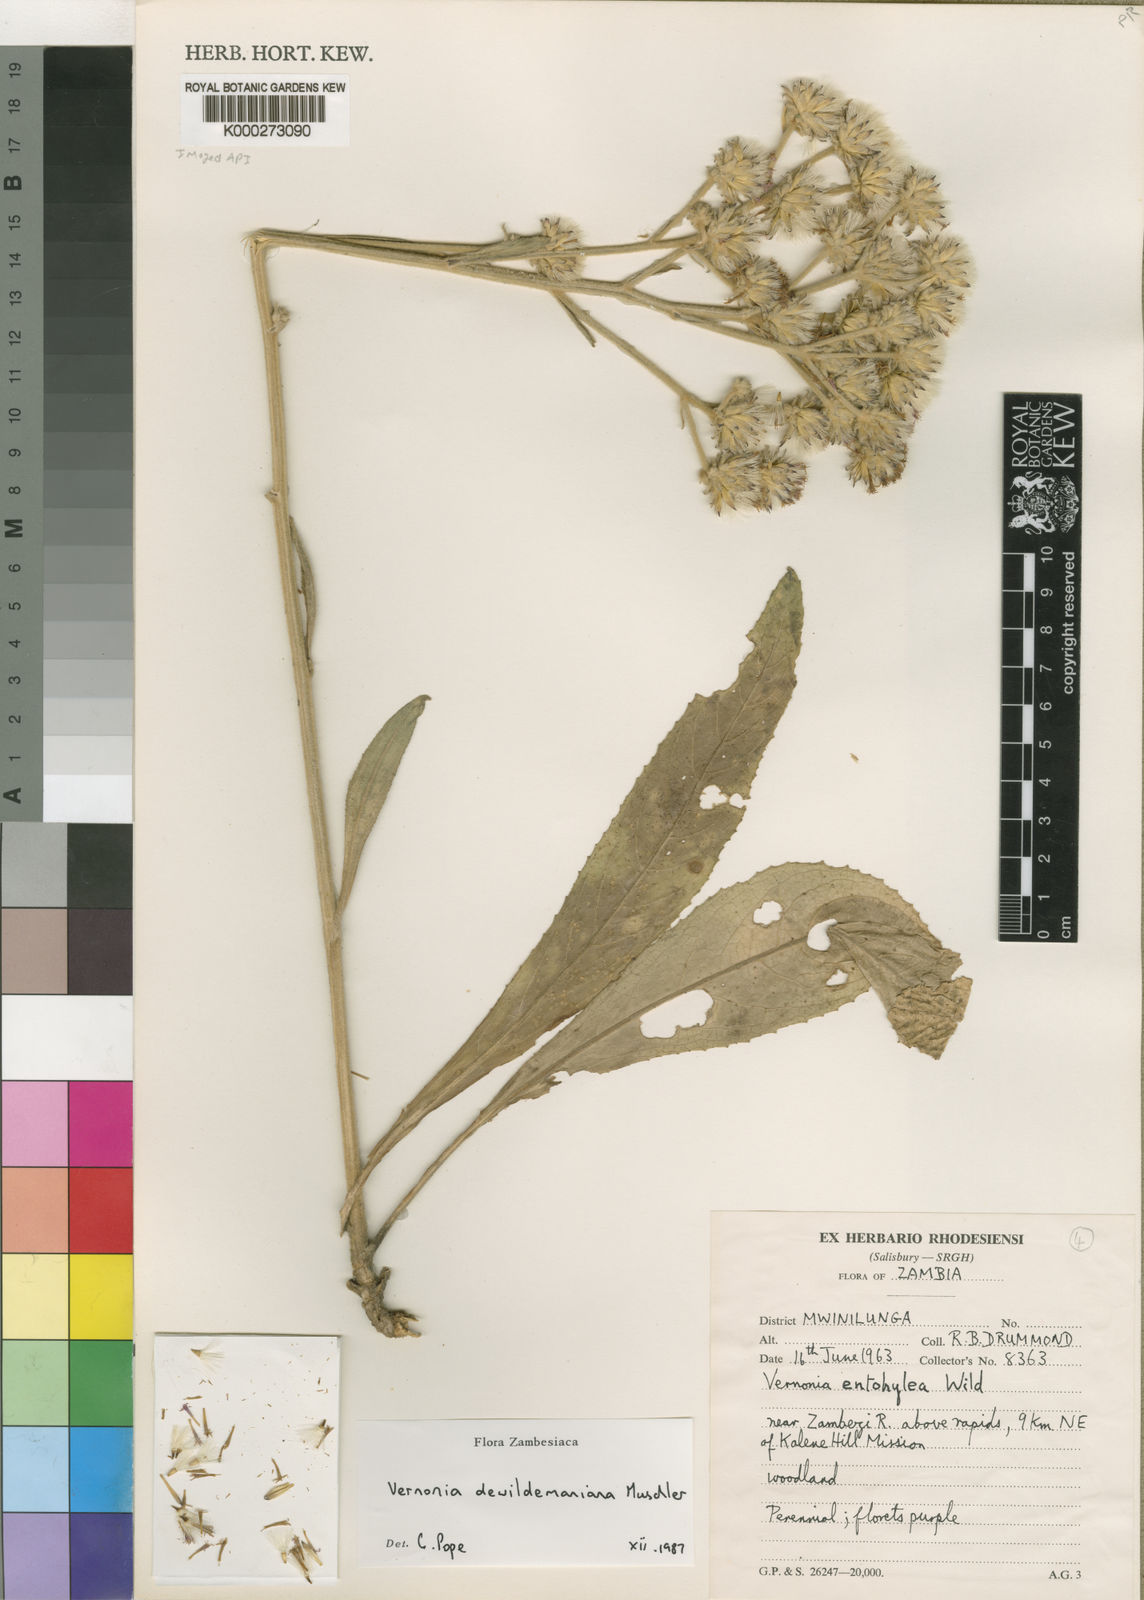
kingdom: Plantae
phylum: Tracheophyta
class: Magnoliopsida
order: Asterales
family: Asteraceae
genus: Vernonia
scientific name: Vernonia dewildemaniana
